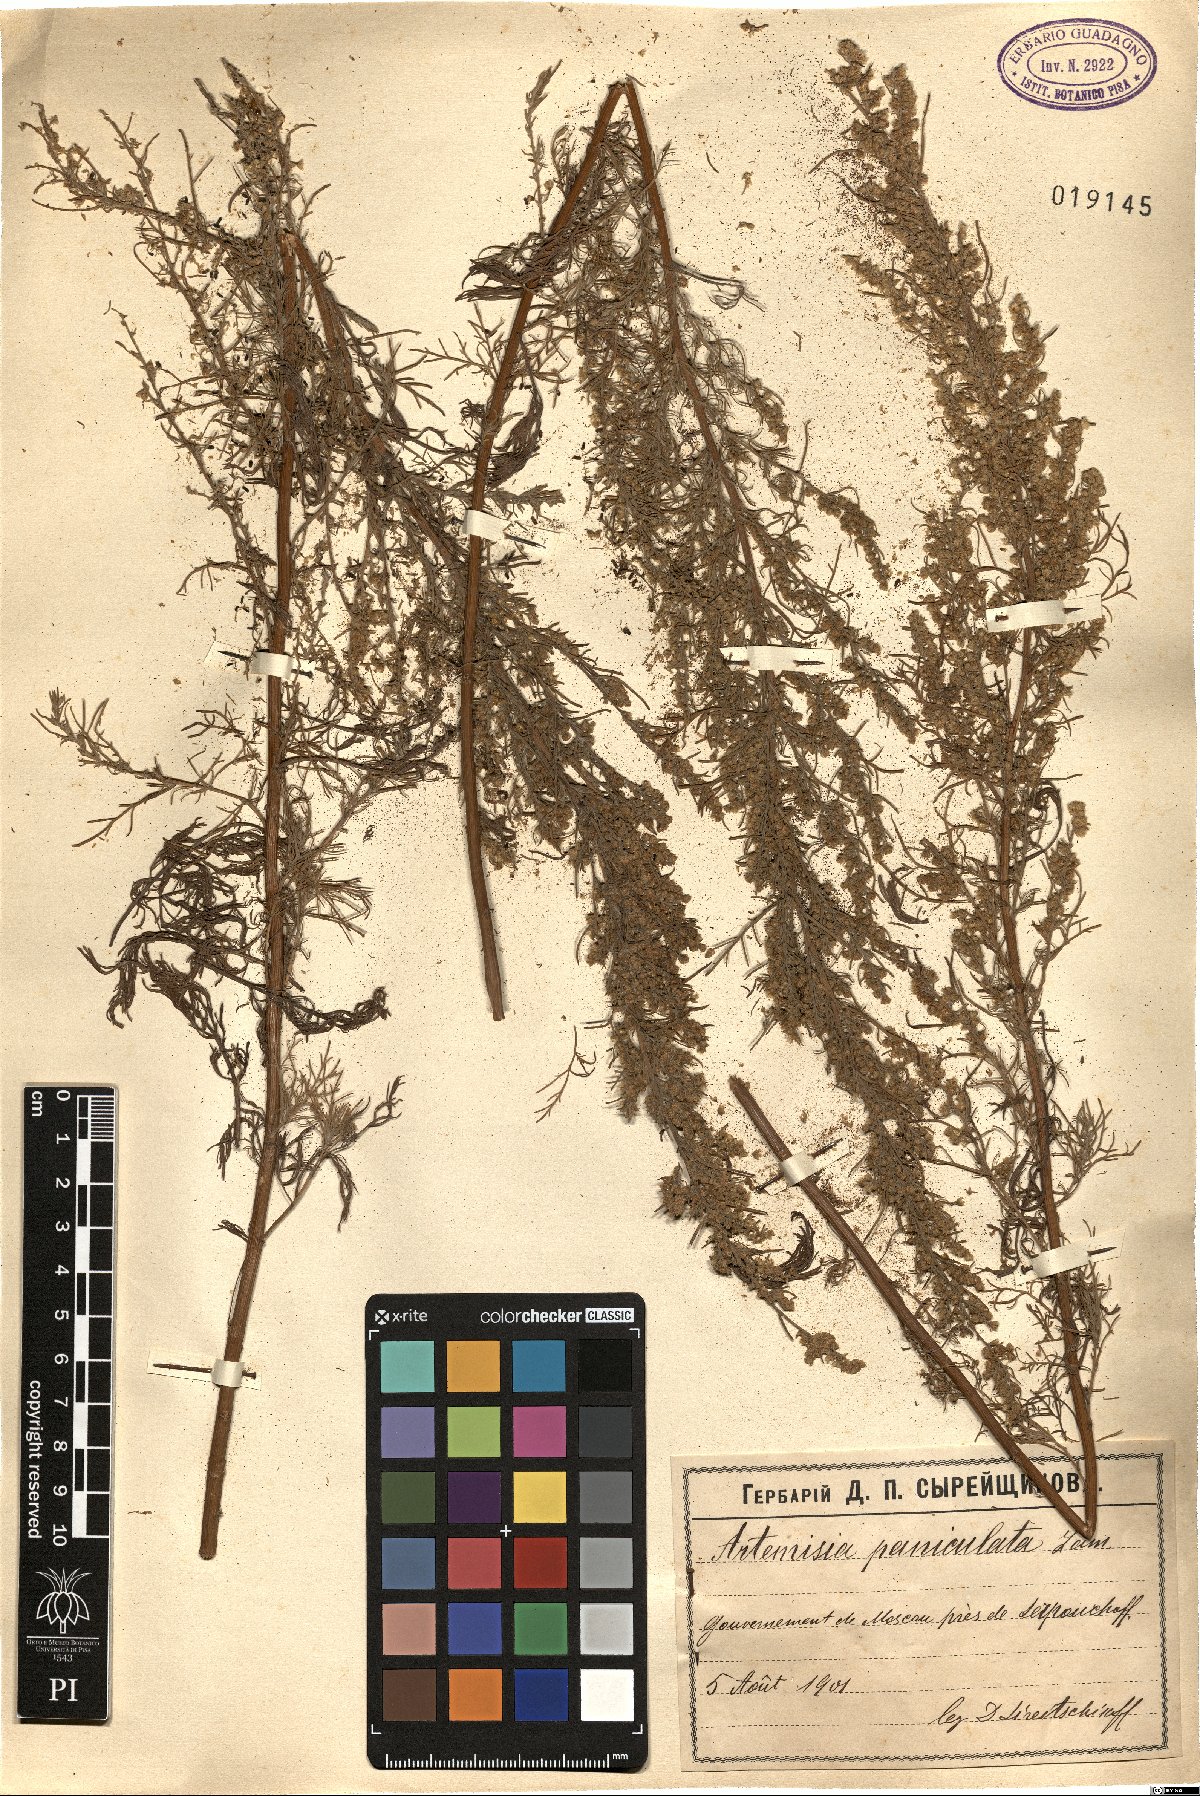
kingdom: Plantae
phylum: Tracheophyta
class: Magnoliopsida
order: Asterales
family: Asteraceae
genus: Artemisia
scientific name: Artemisia abrotanum
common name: Southernwood
